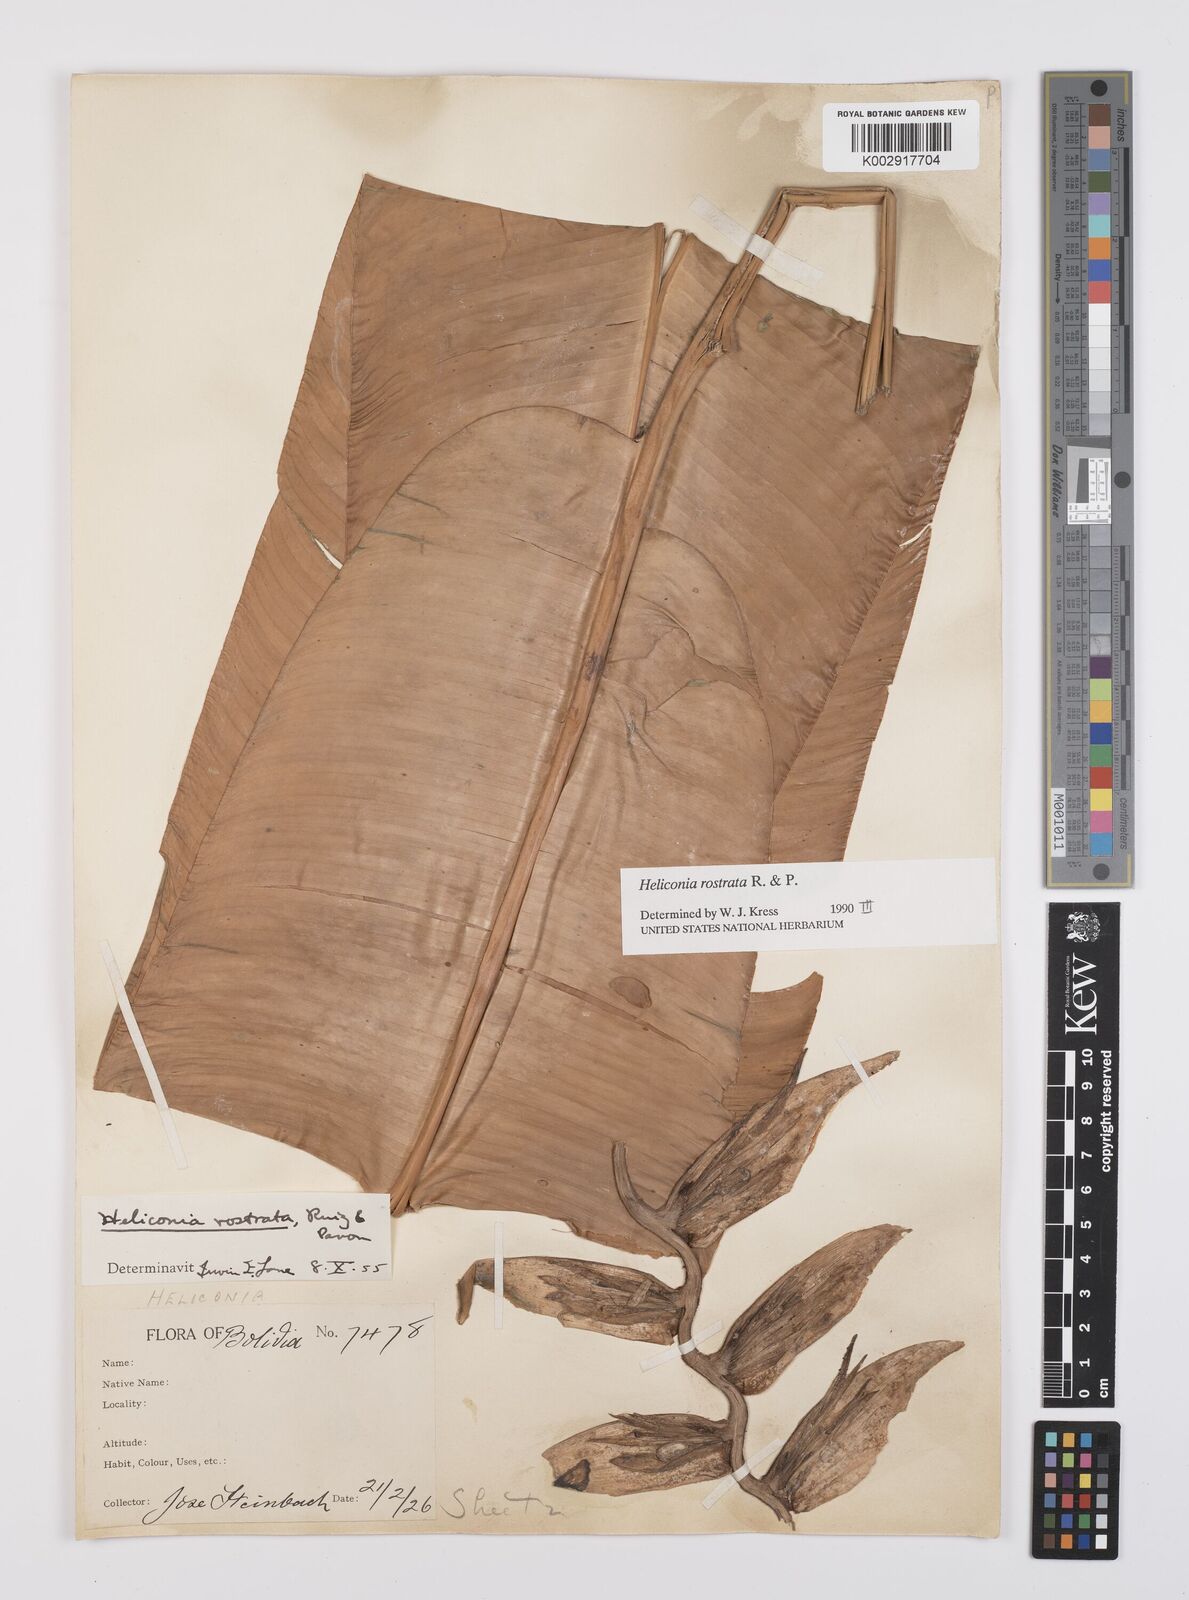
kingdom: Plantae
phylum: Tracheophyta
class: Liliopsida
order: Zingiberales
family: Heliconiaceae
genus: Heliconia
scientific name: Heliconia rostrata
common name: False bird of paradise
